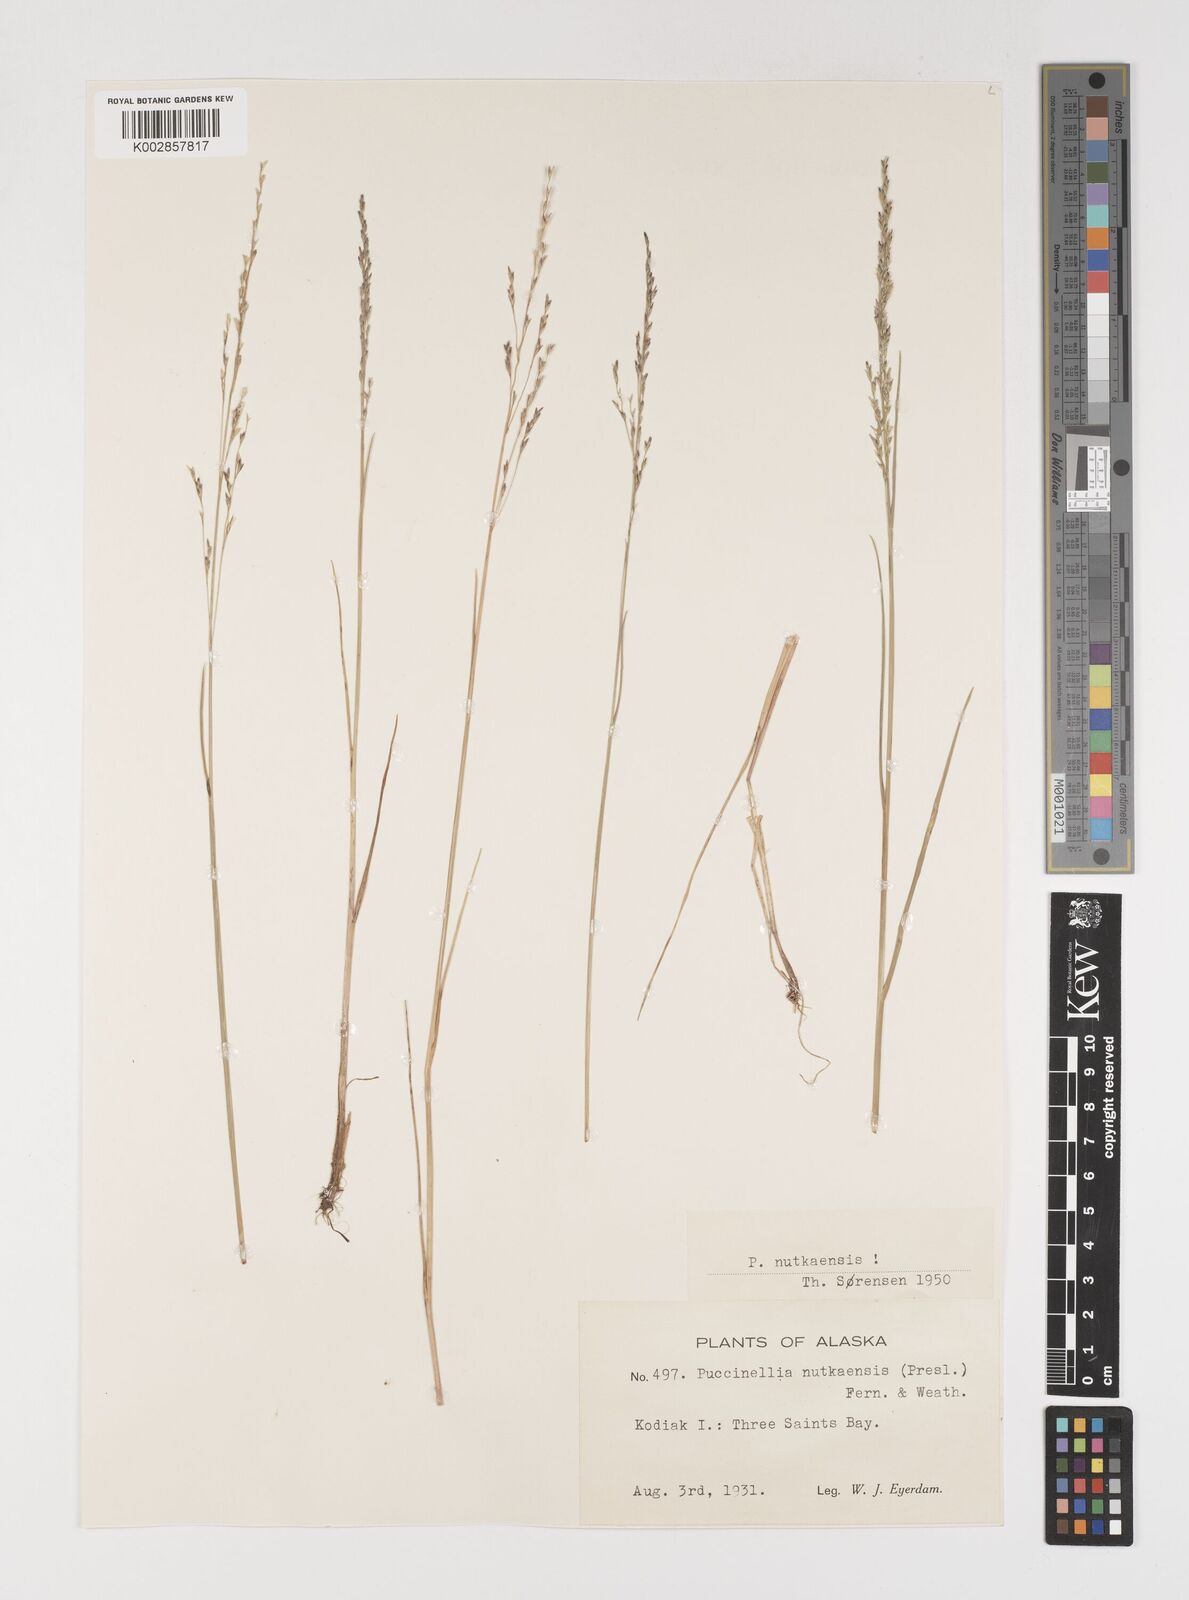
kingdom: Plantae
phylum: Tracheophyta
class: Liliopsida
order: Poales
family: Poaceae
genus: Puccinellia
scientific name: Puccinellia nutkaensis
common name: Nootka alkaligrass
